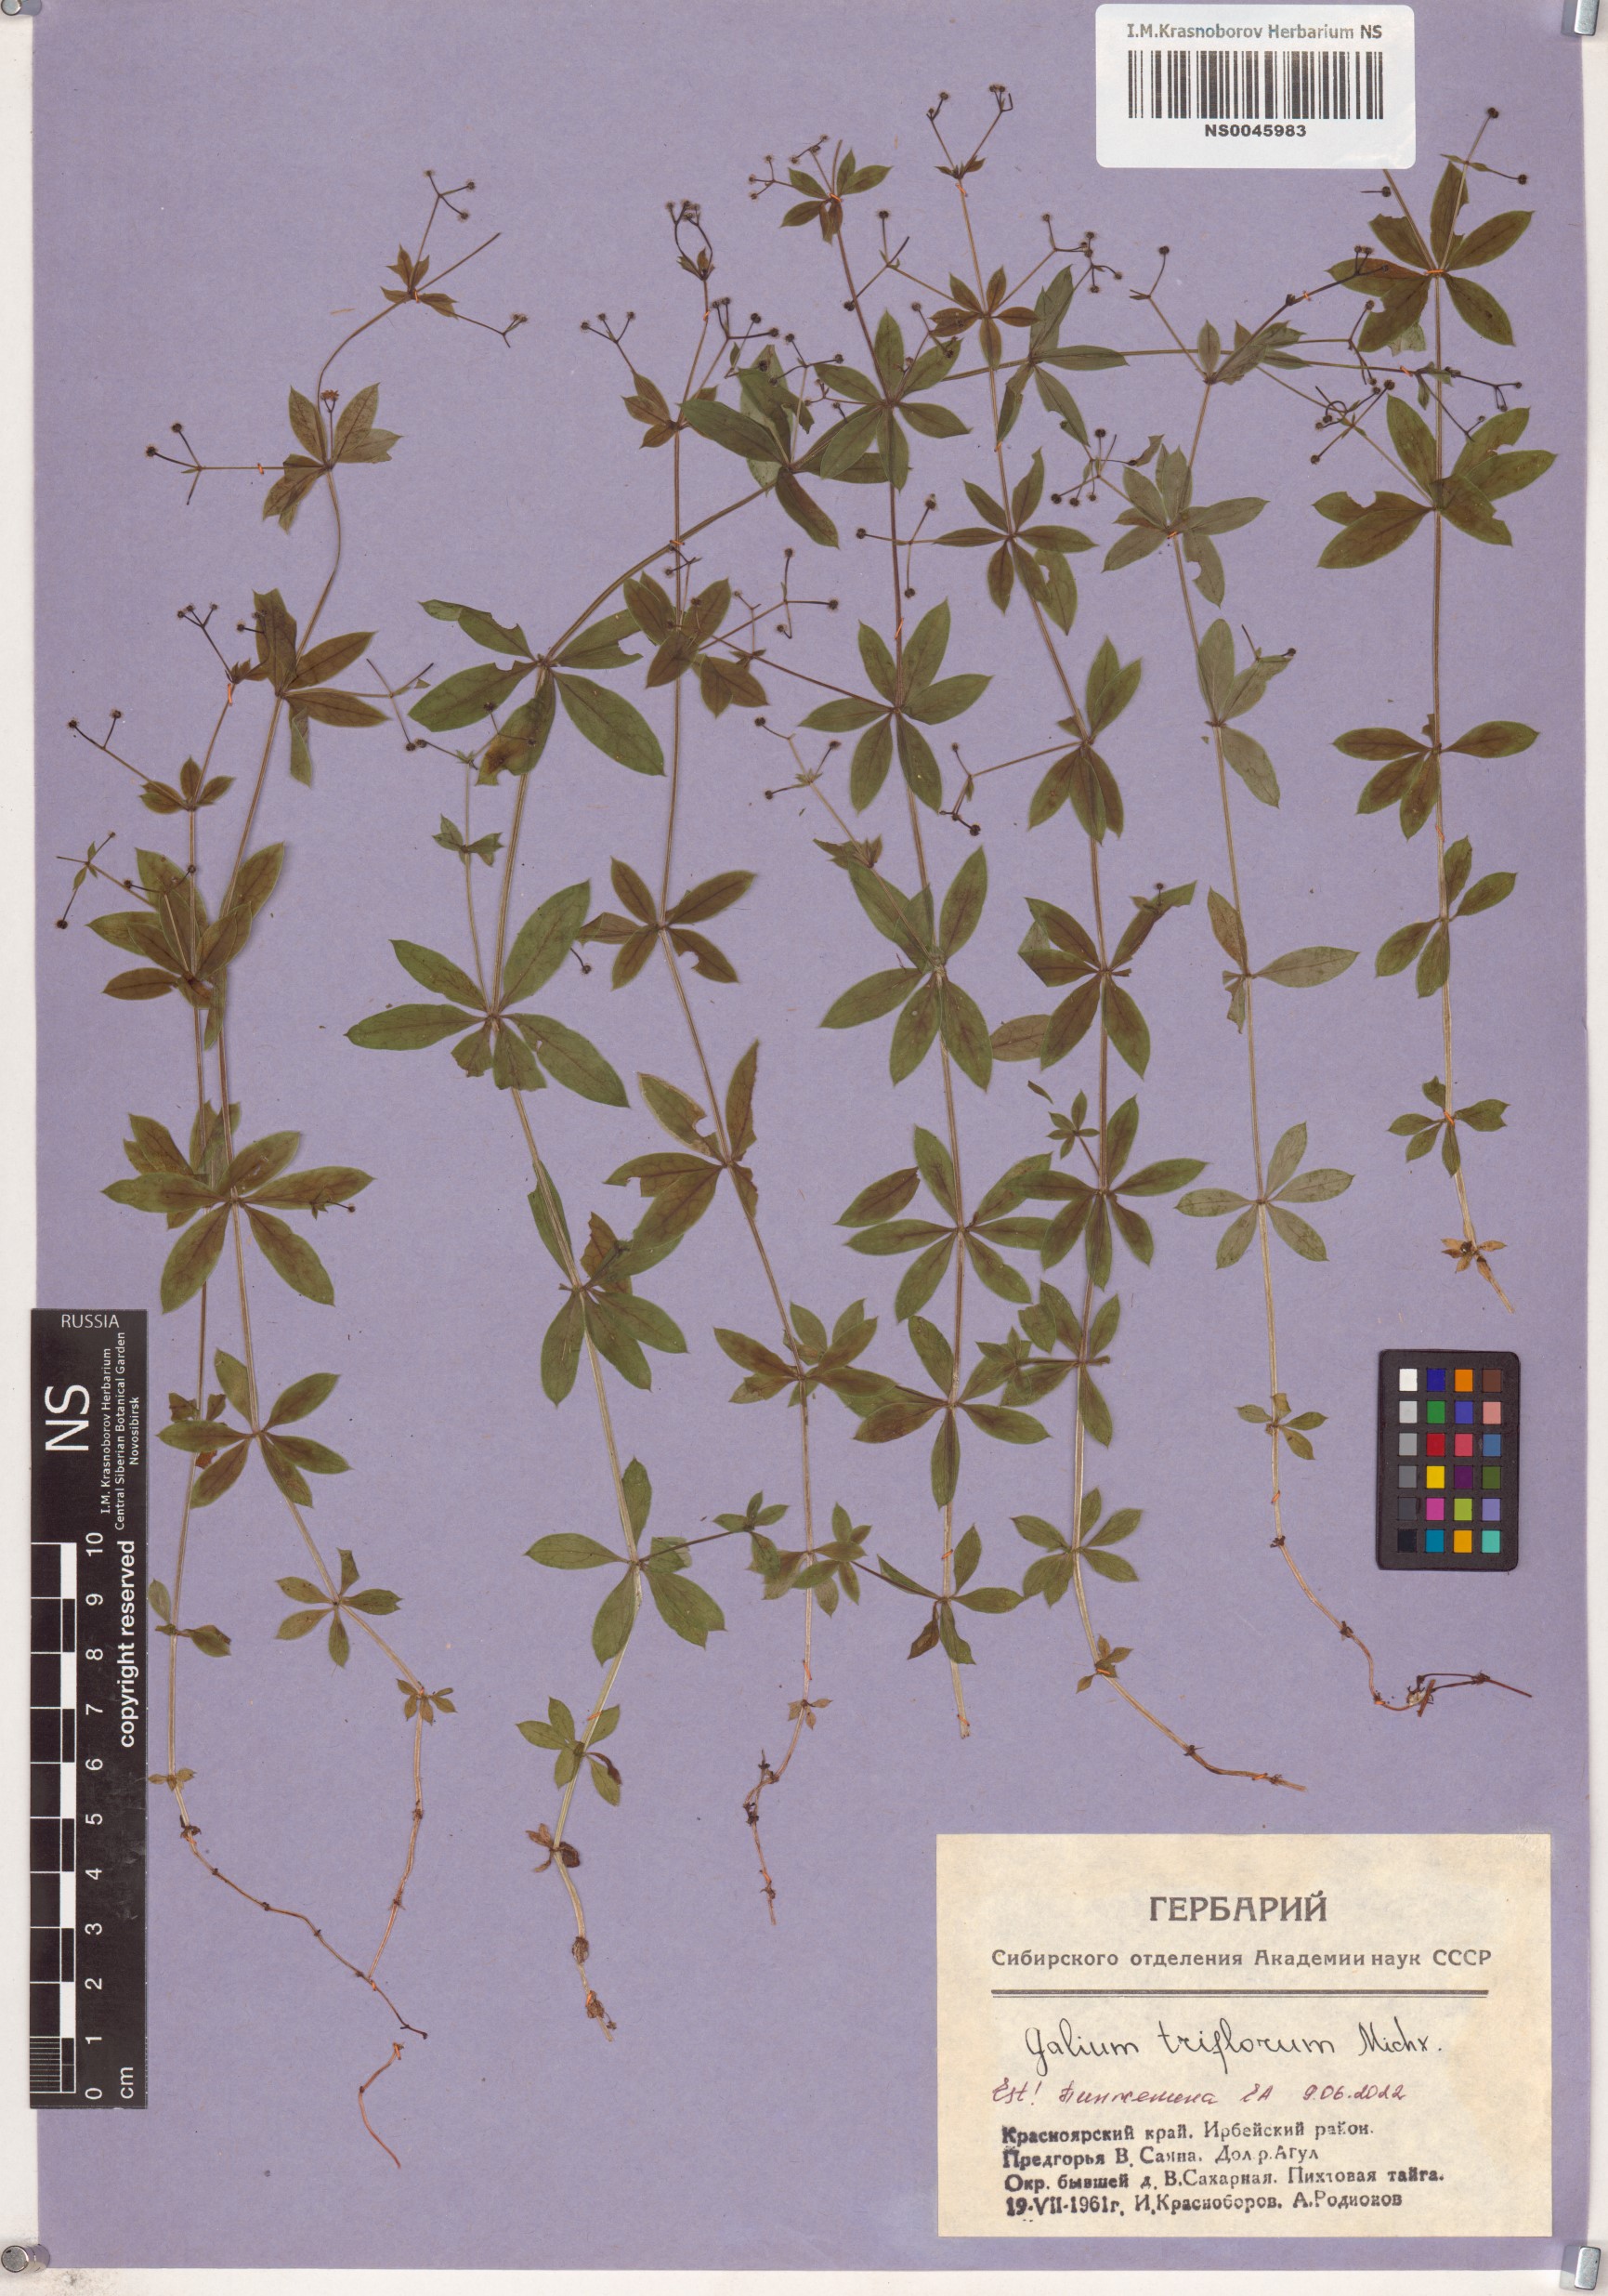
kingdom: Plantae
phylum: Tracheophyta
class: Magnoliopsida
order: Gentianales
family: Rubiaceae
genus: Galium
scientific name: Galium triflorum
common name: Fragrant bedstraw
